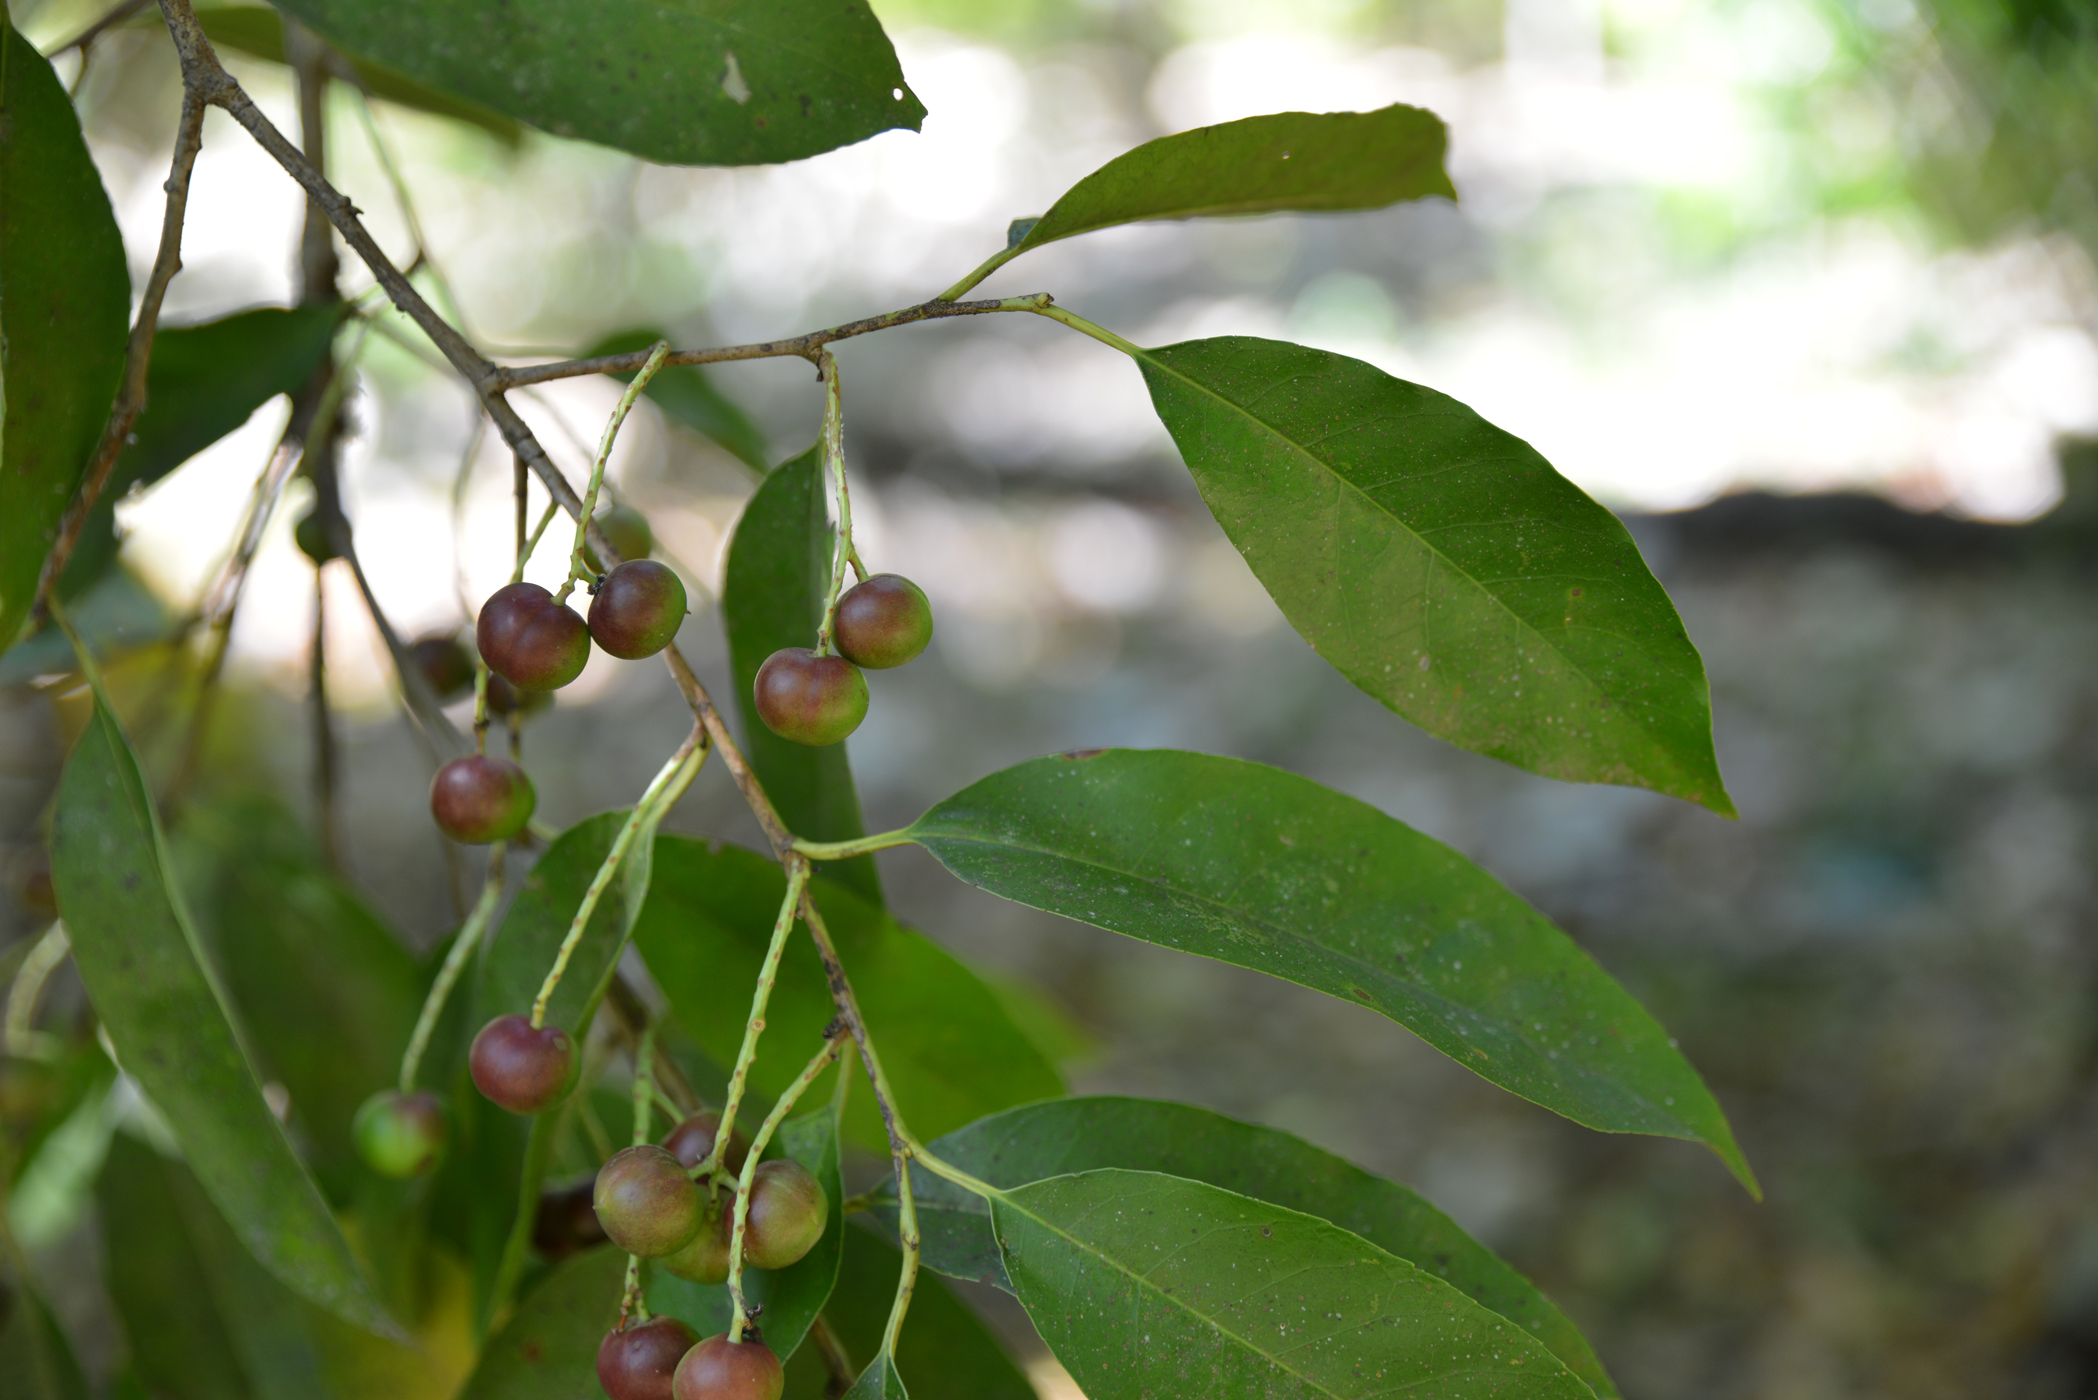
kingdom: Plantae
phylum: Tracheophyta
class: Magnoliopsida
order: Rosales
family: Rosaceae
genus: Prunus
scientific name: Prunus
